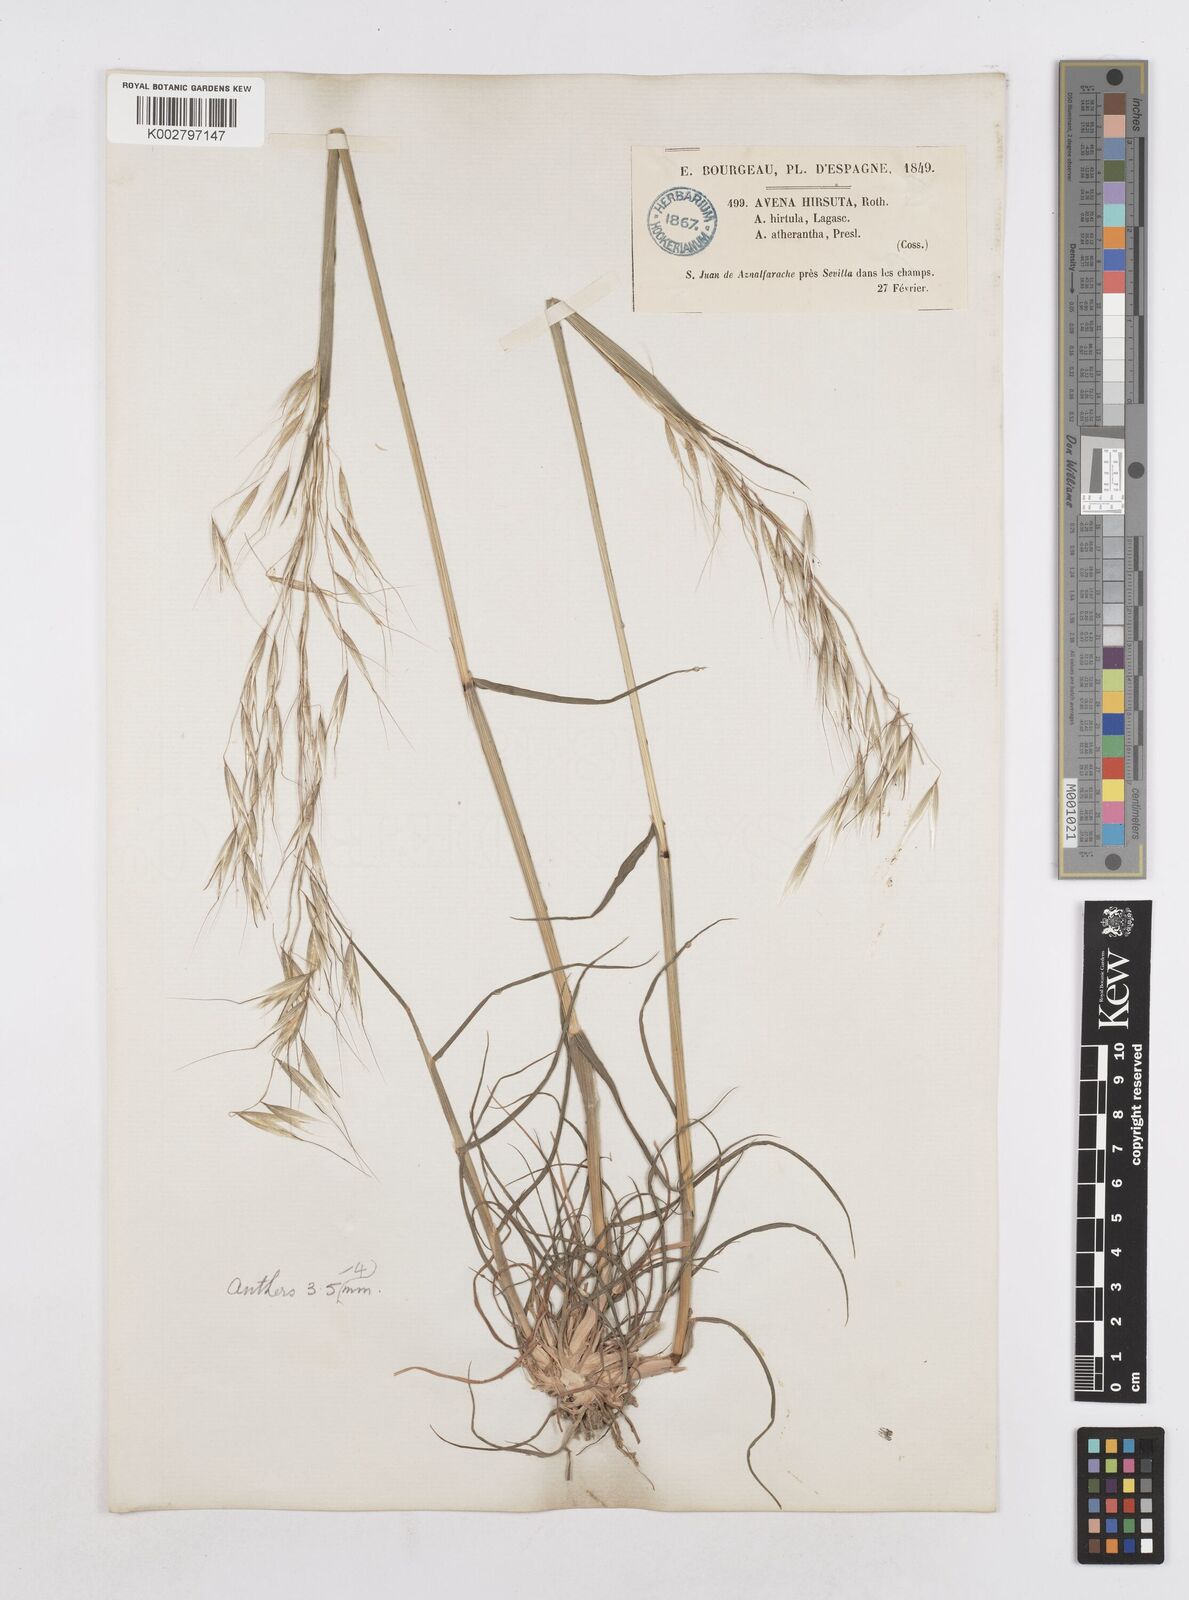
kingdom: Plantae
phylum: Tracheophyta
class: Liliopsida
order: Poales
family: Poaceae
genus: Avena
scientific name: Avena
